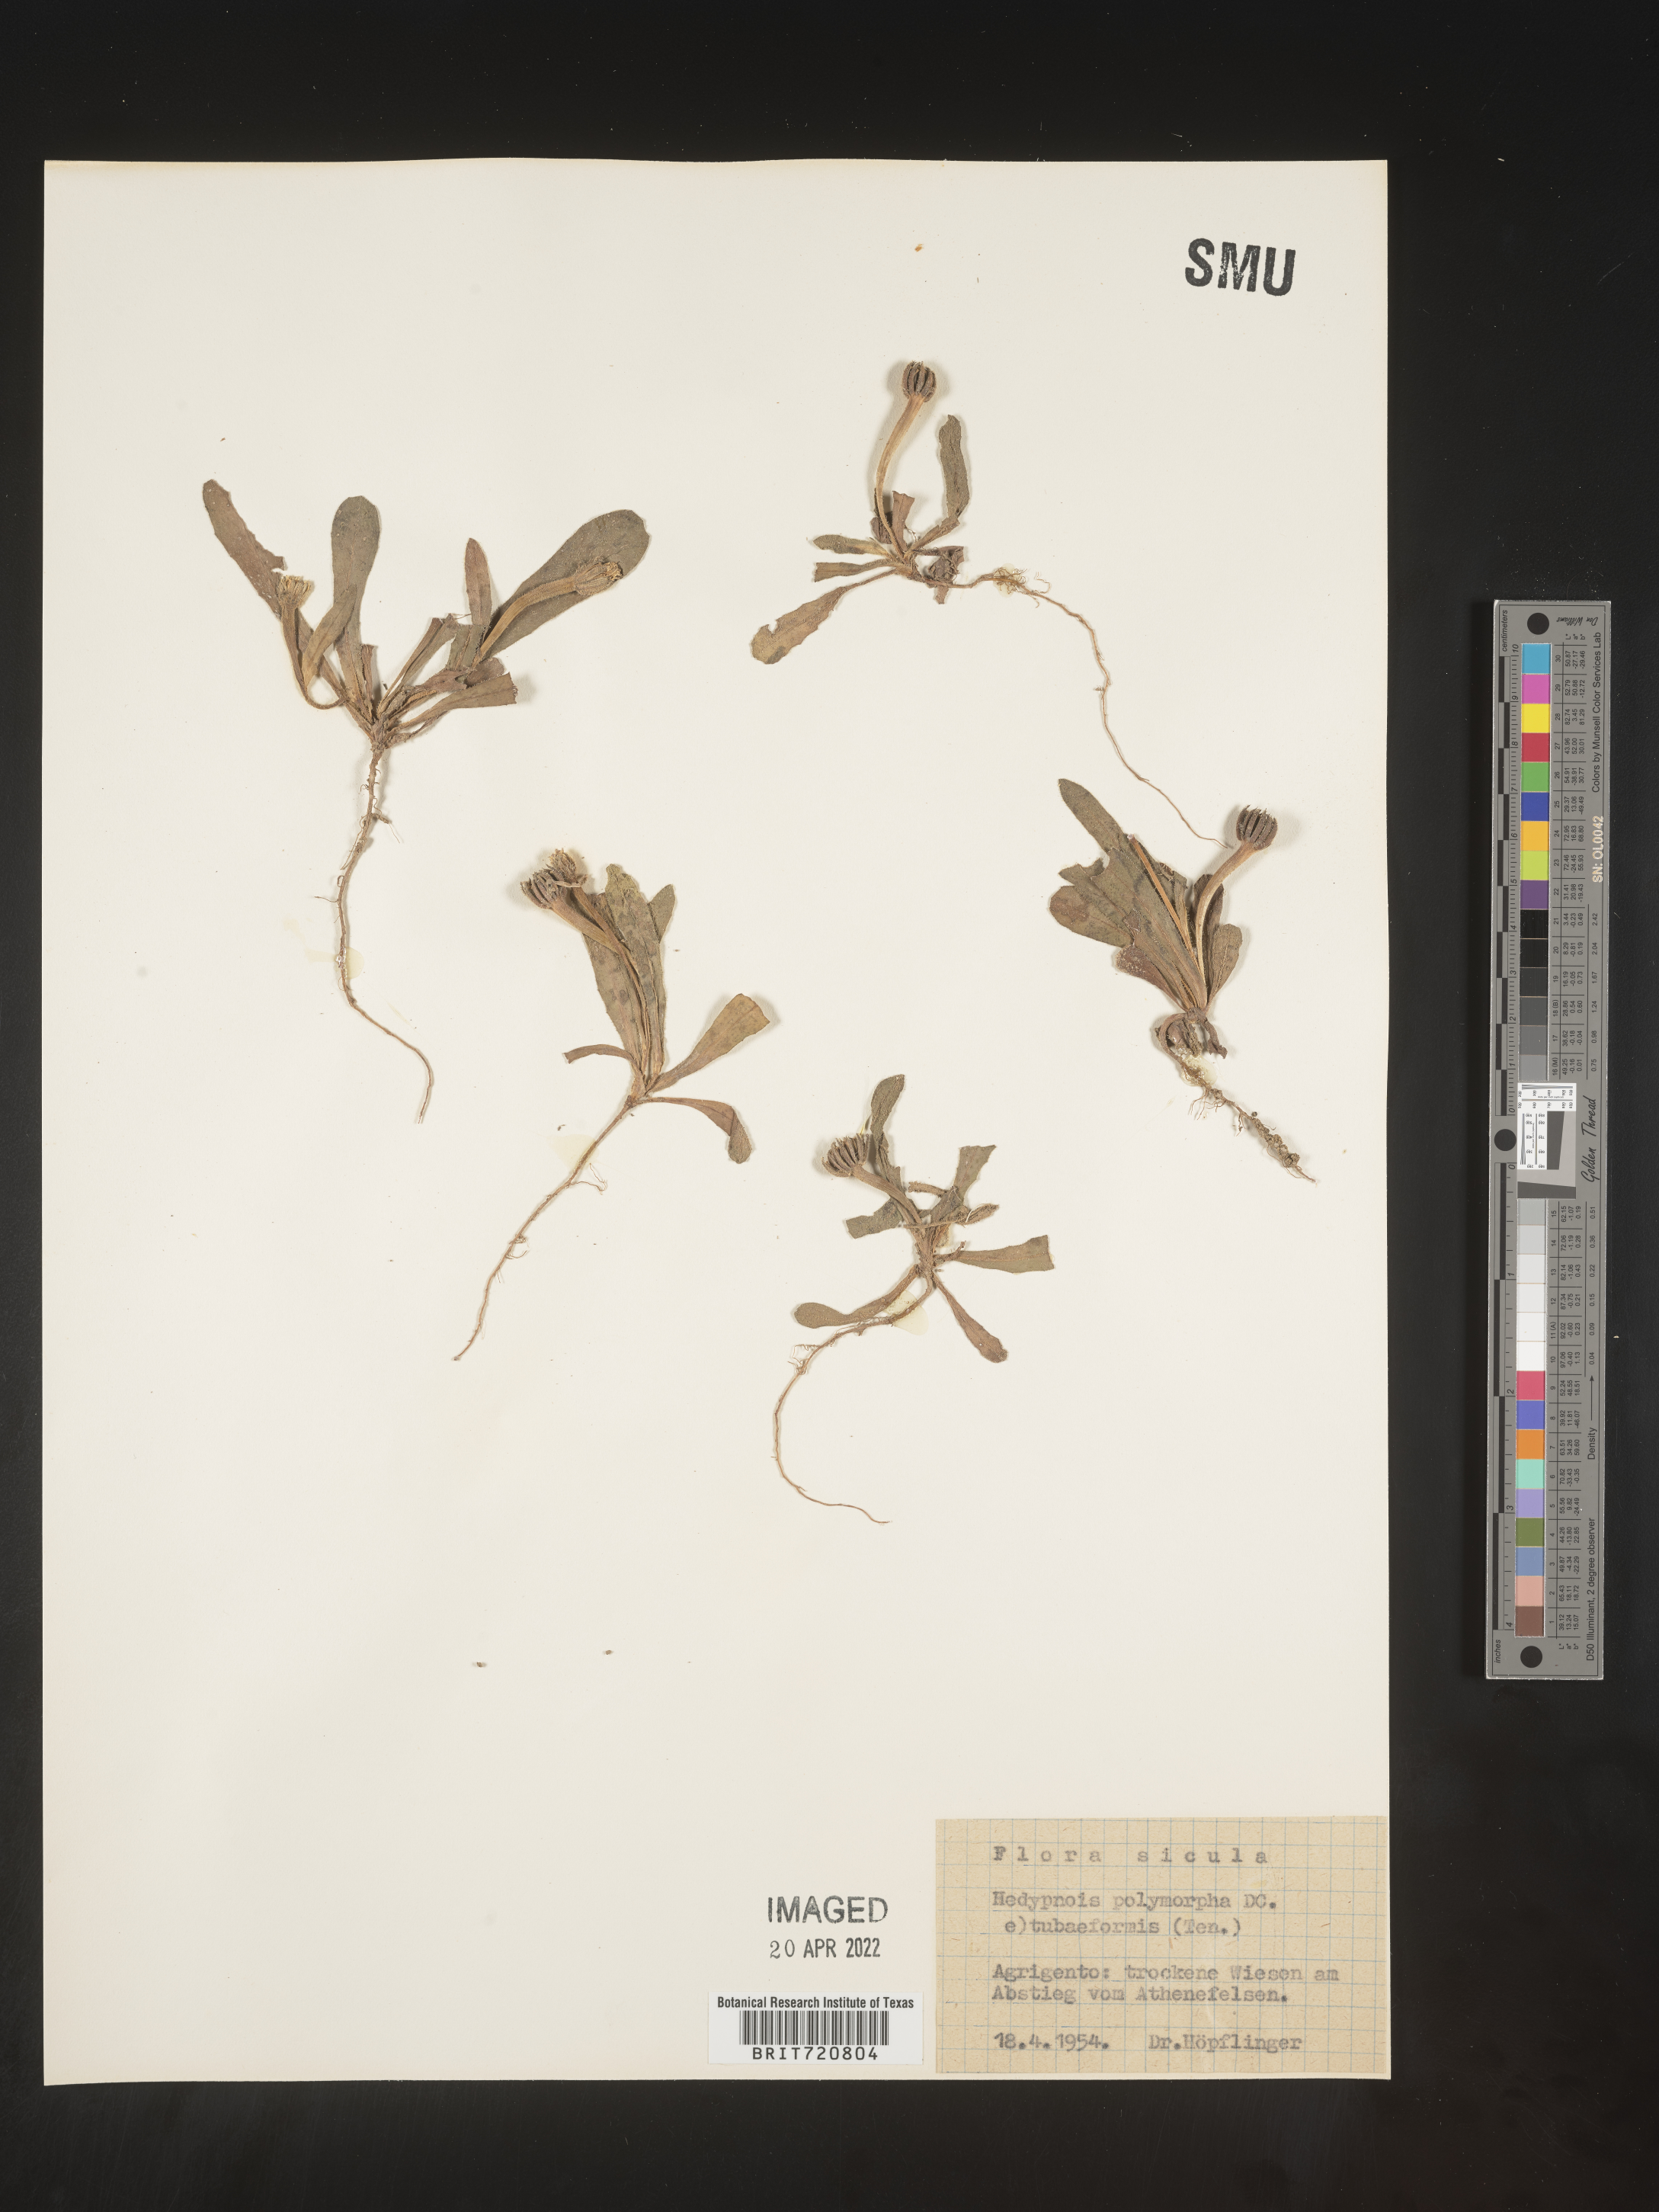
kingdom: Plantae
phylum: Tracheophyta
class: Magnoliopsida
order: Asterales
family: Asteraceae
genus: Hedypnois
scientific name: Hedypnois
